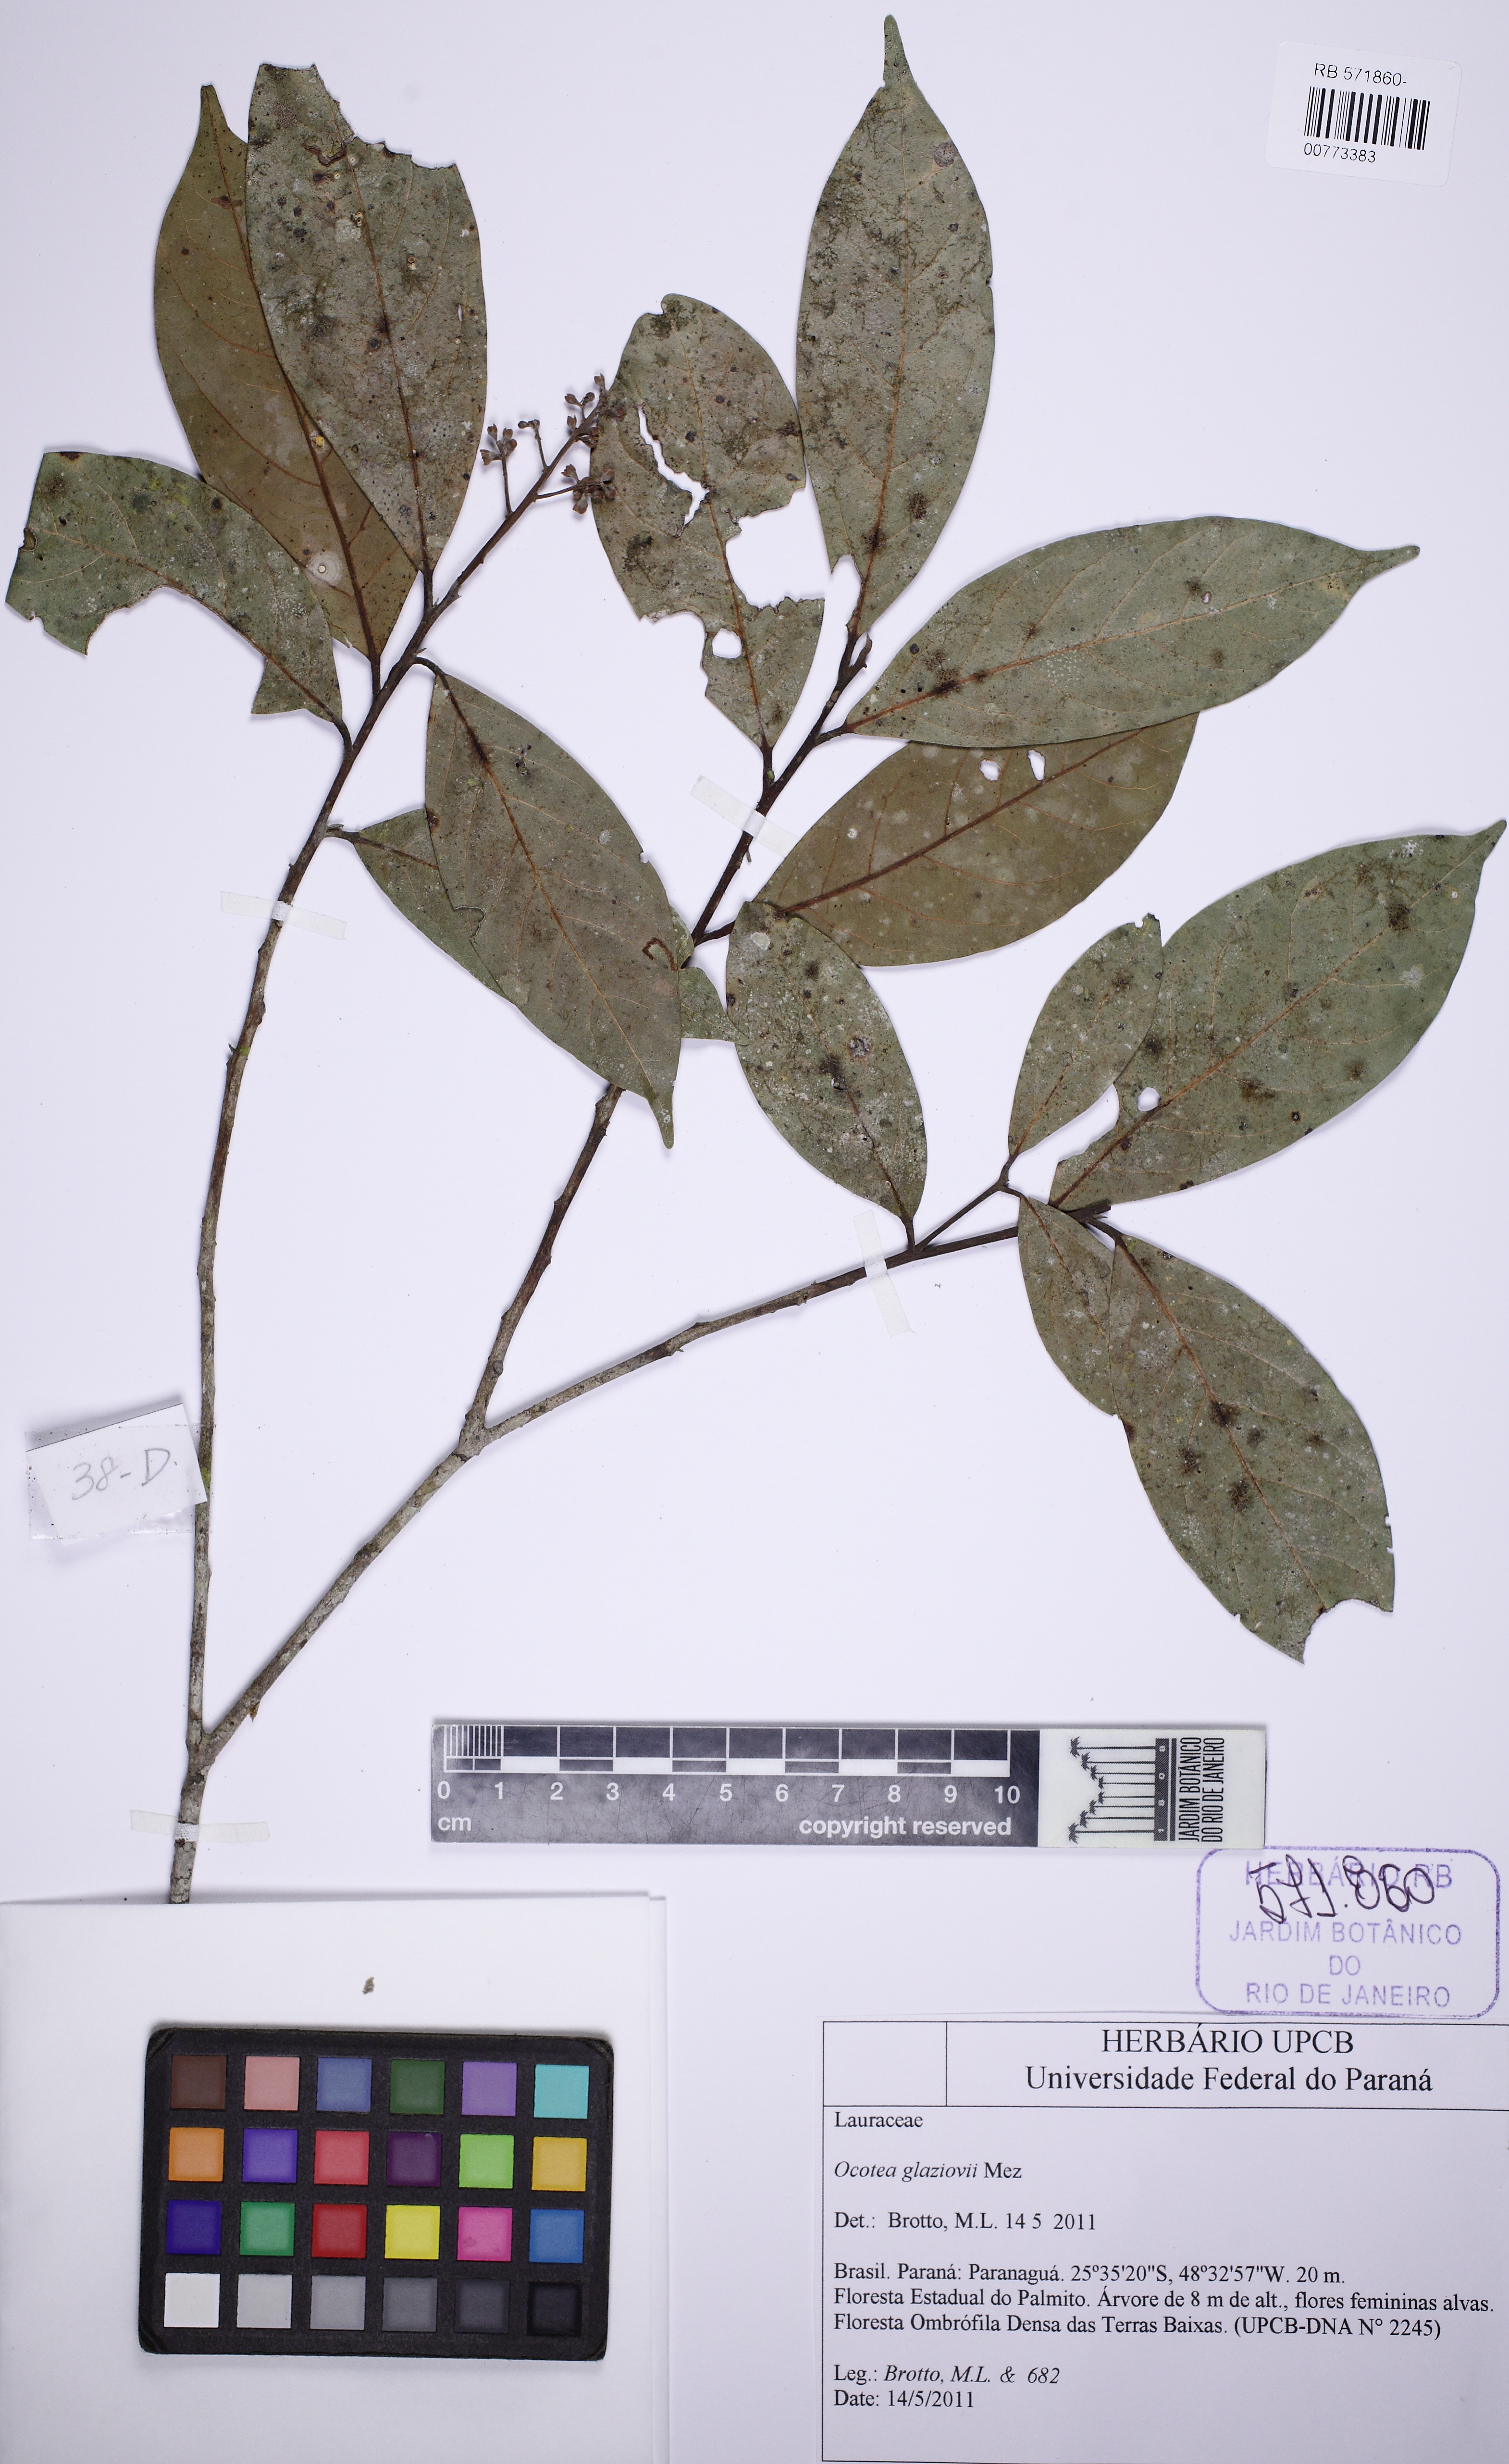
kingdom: Plantae
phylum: Tracheophyta
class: Magnoliopsida
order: Laurales
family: Lauraceae
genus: Ocotea
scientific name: Ocotea glaziovii
